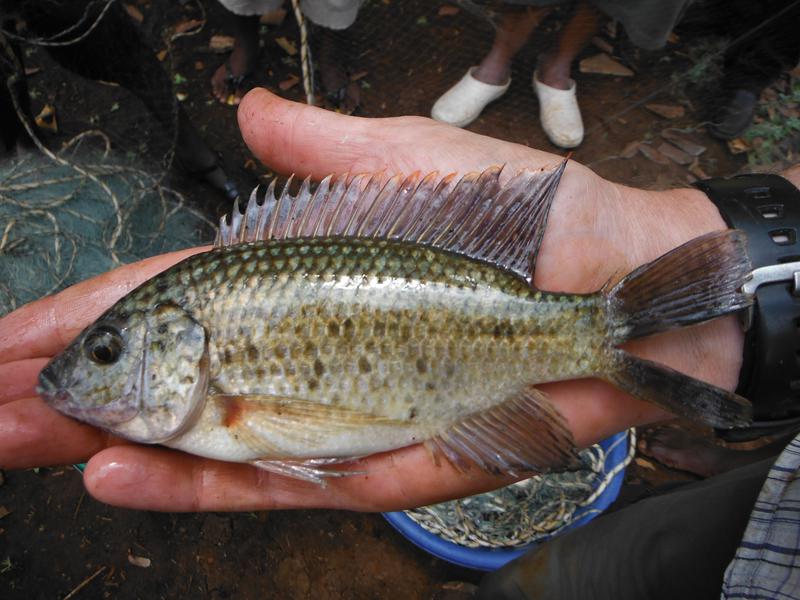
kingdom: Animalia
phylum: Chordata
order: Perciformes
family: Cichlidae
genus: Oreochromis
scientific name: Oreochromis shiranus
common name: Chilwa tilapia
